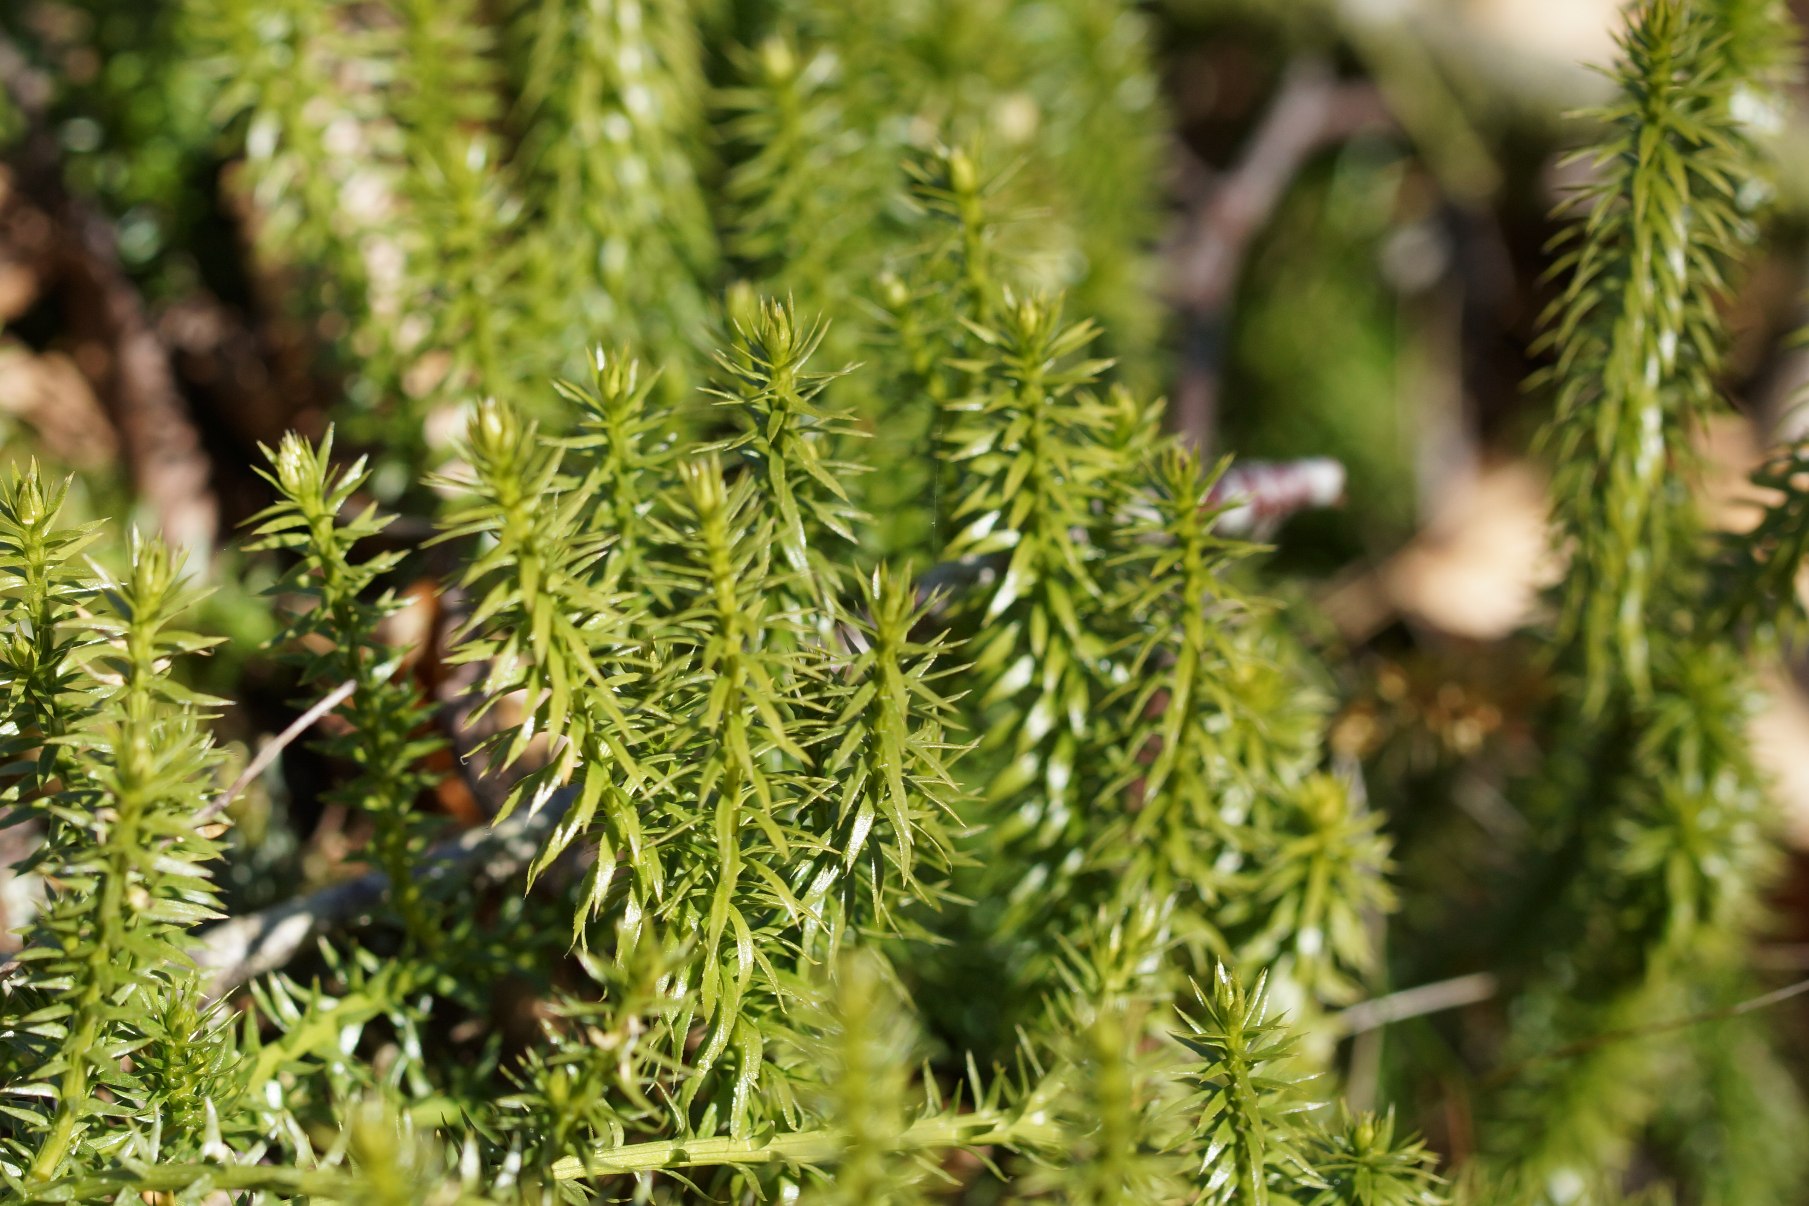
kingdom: Plantae
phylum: Tracheophyta
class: Lycopodiopsida
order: Lycopodiales
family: Lycopodiaceae
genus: Spinulum
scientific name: Spinulum annotinum
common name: Femradet ulvefod
